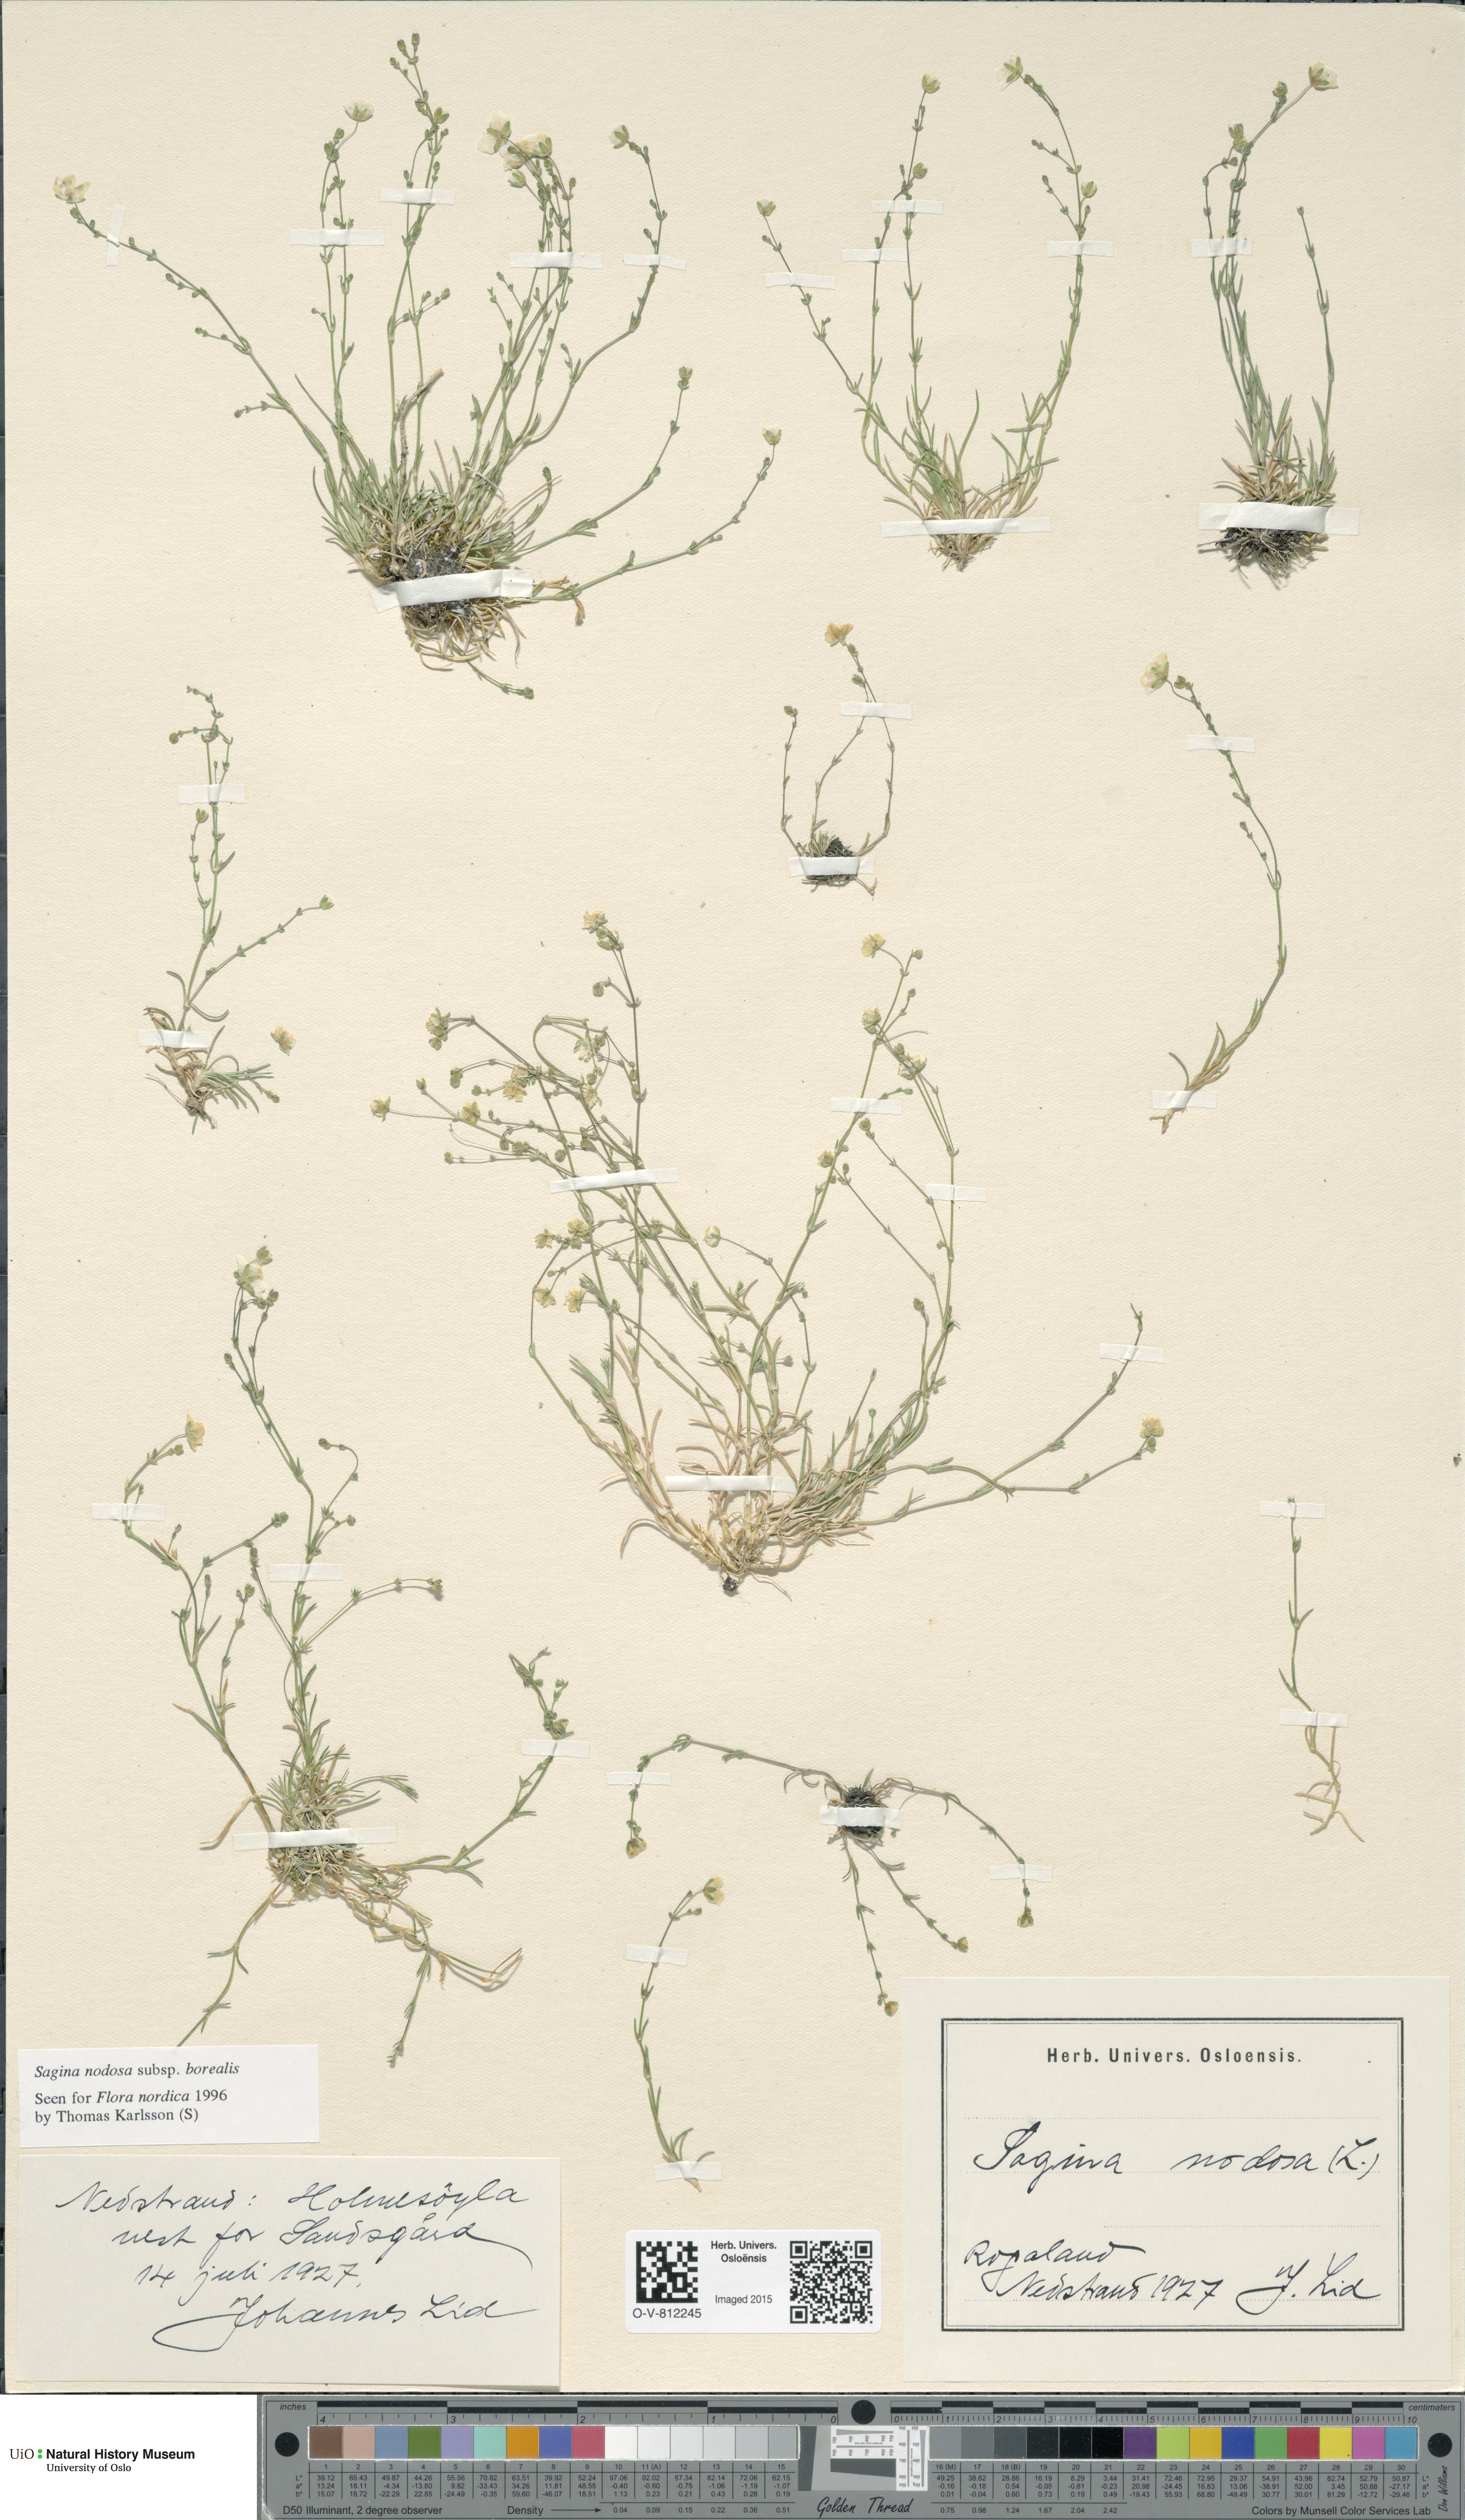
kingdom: Plantae
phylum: Tracheophyta
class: Magnoliopsida
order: Caryophyllales
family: Caryophyllaceae
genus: Sagina
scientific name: Sagina nodosa
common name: Knotted pearlwort
